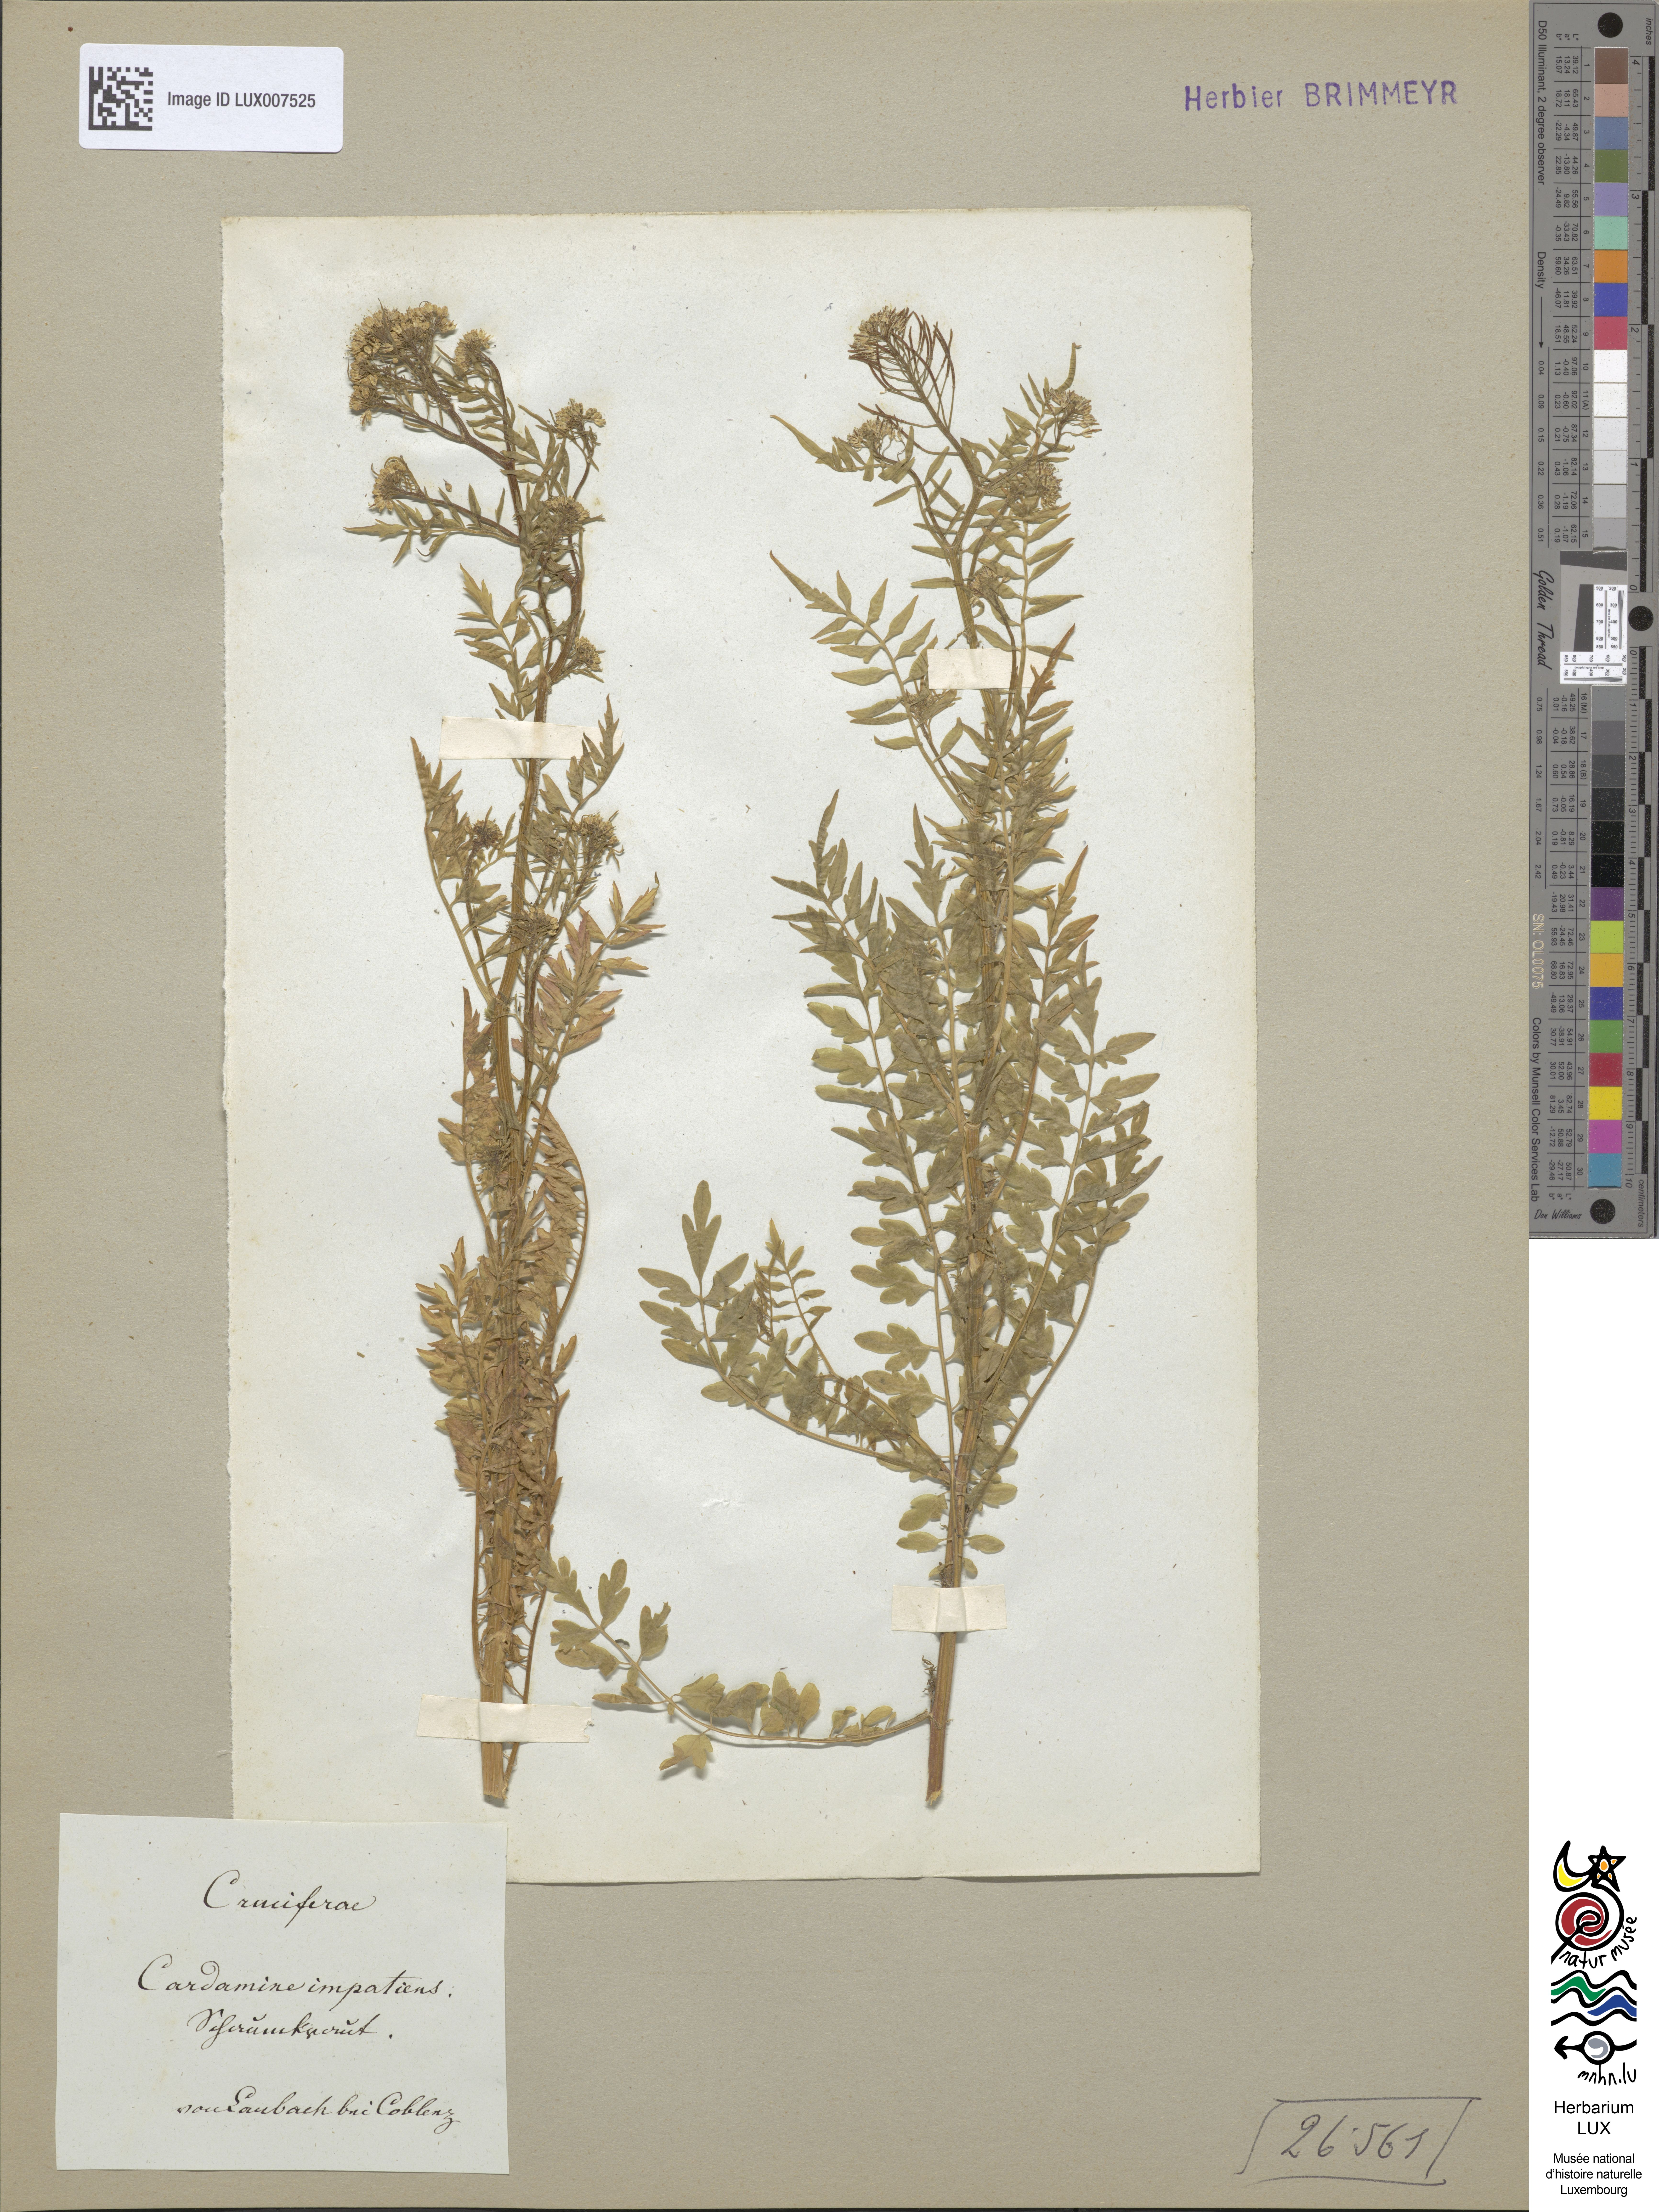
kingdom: Plantae
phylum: Tracheophyta
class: Magnoliopsida
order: Brassicales
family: Brassicaceae
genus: Cardamine
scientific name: Cardamine impatiens
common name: Narrow-leaved bitter-cress
